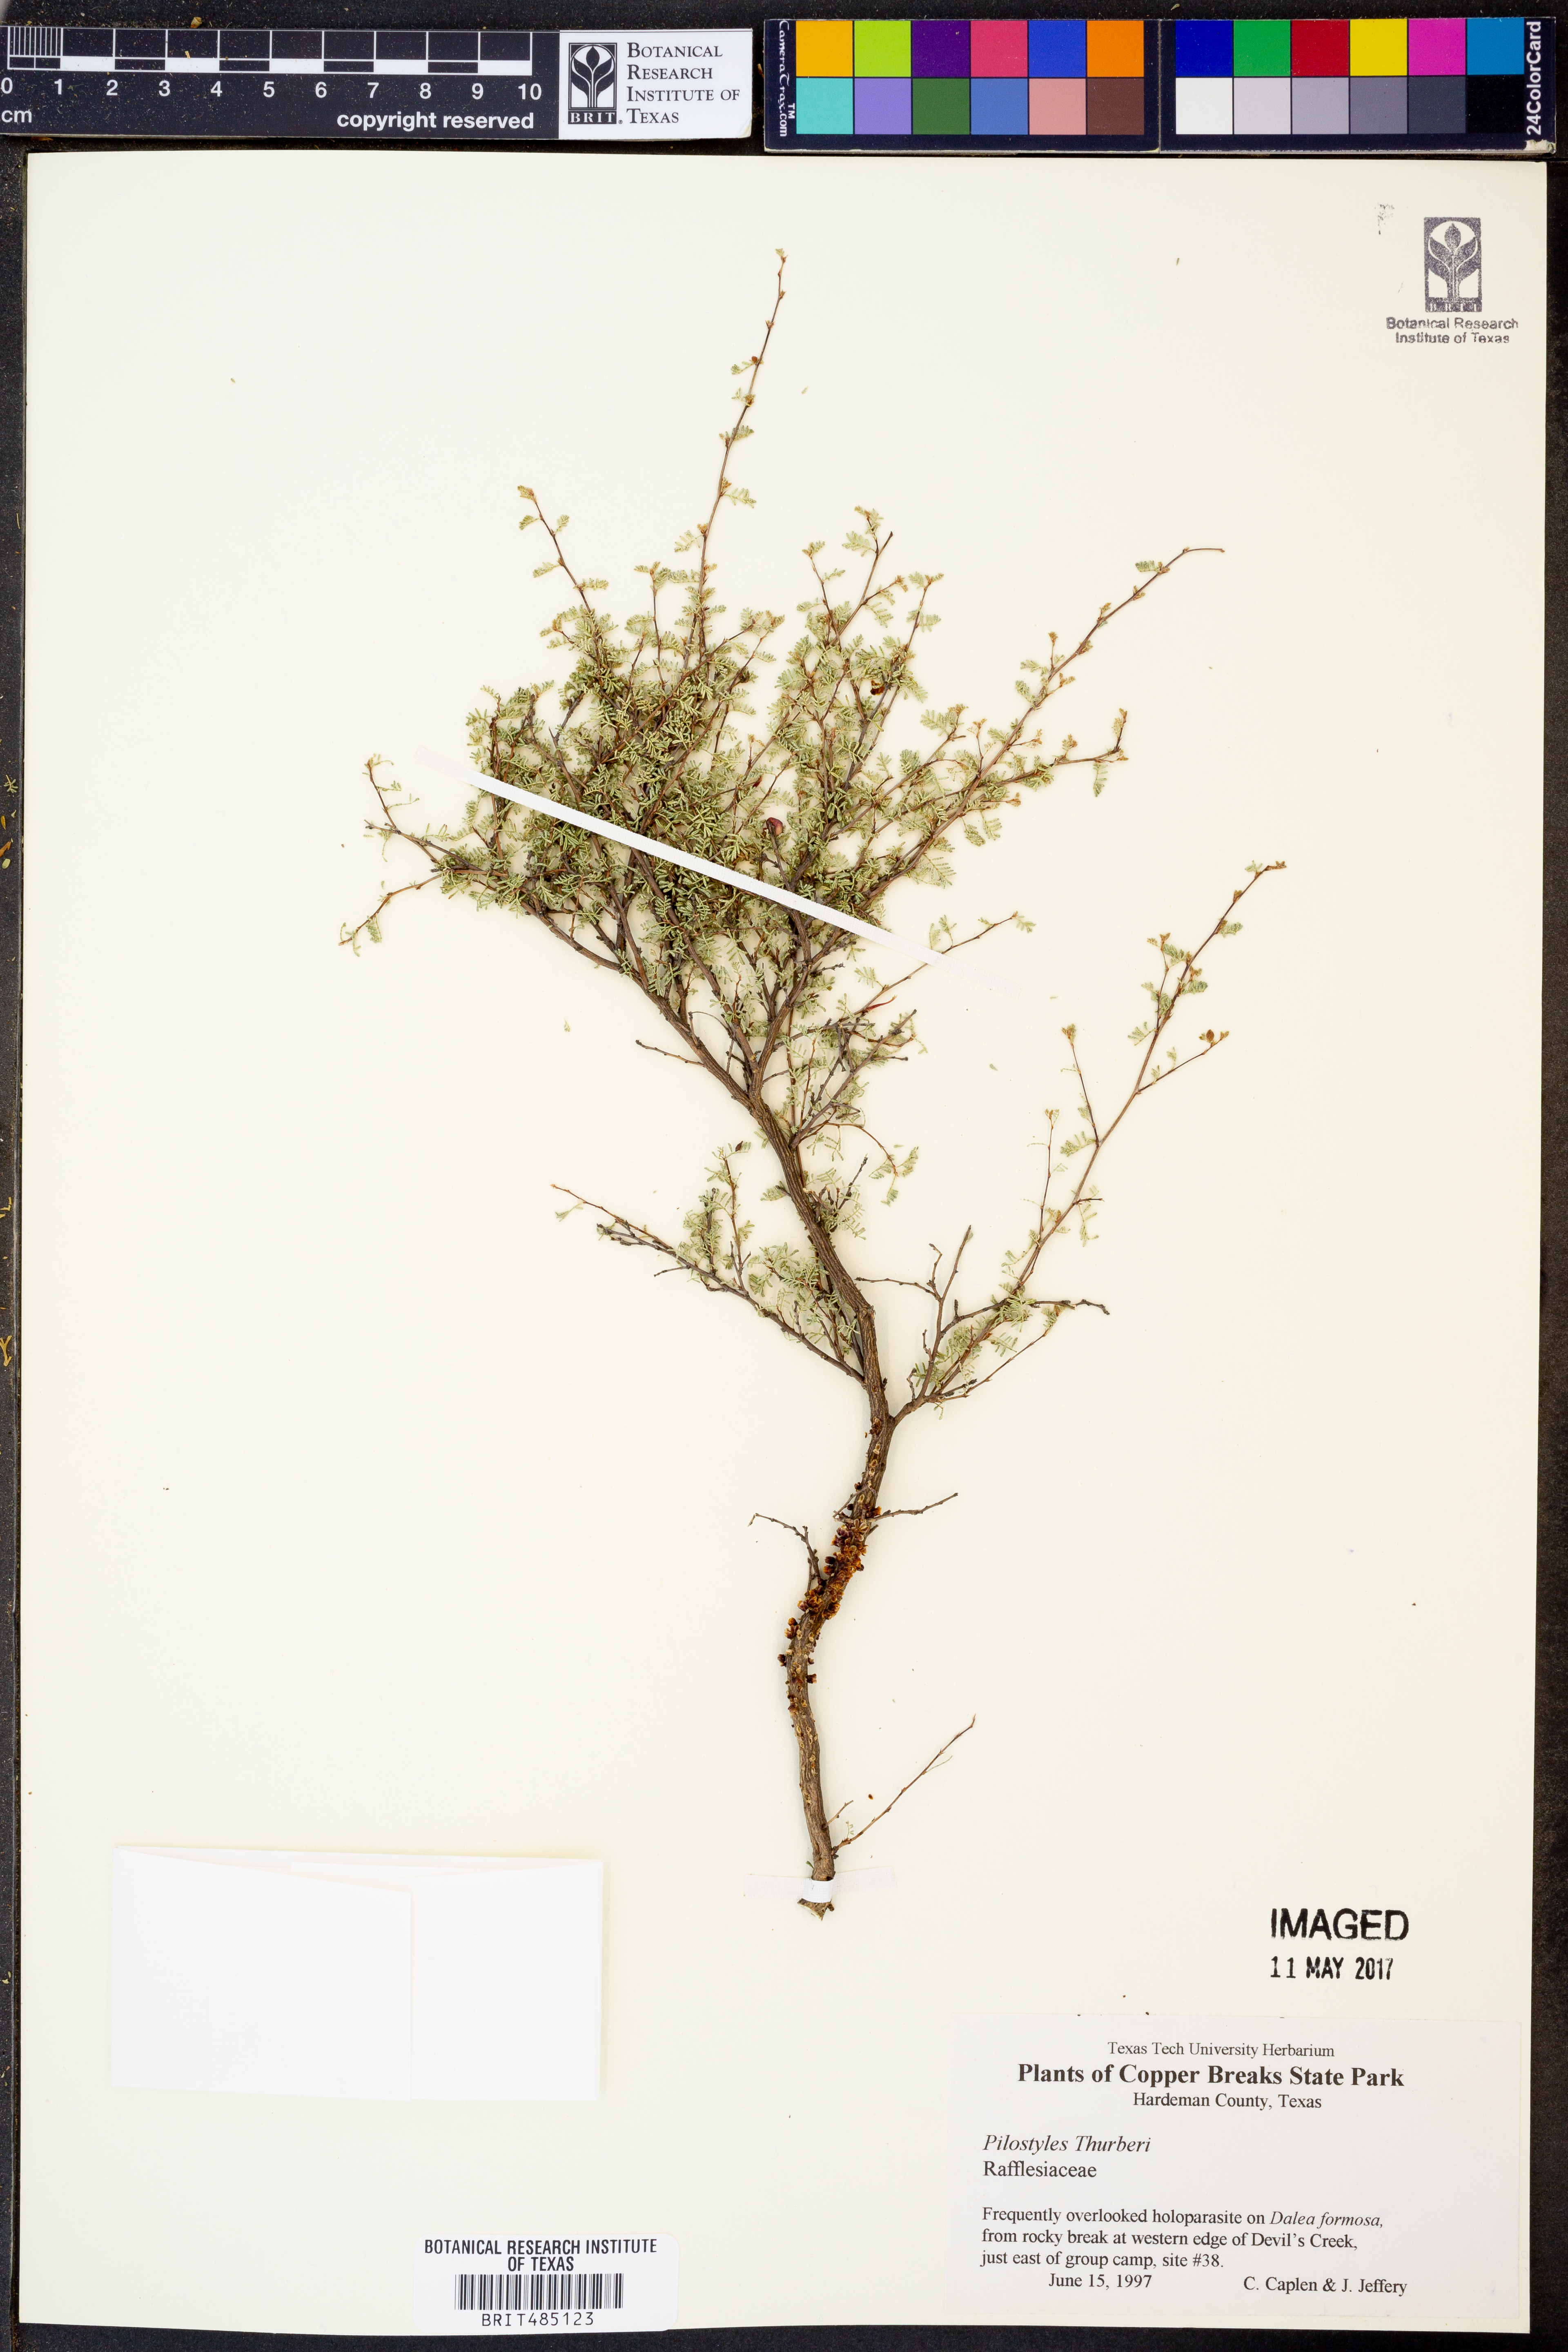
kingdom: Plantae
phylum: Tracheophyta
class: Magnoliopsida
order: Cucurbitales
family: Apodanthaceae
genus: Pilostyles
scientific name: Pilostyles thurberi
